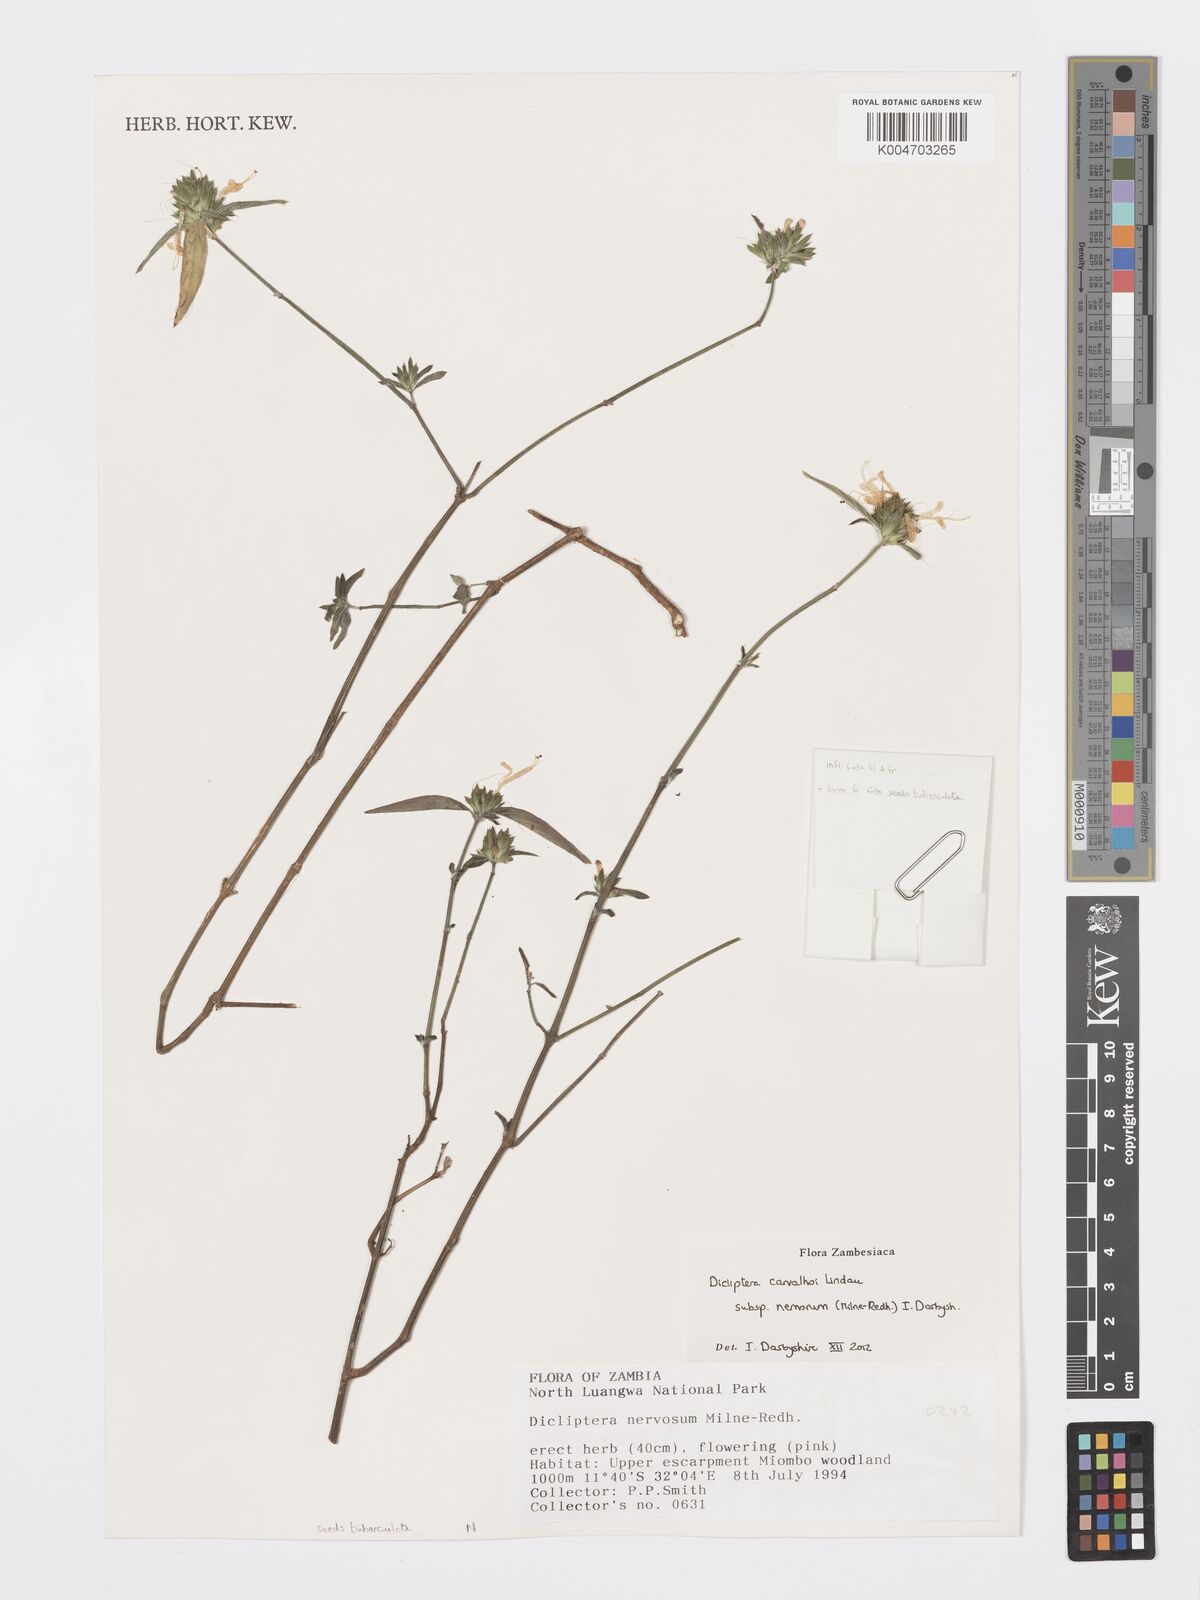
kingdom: Plantae
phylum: Tracheophyta
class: Magnoliopsida
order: Lamiales
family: Acanthaceae
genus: Dicliptera
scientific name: Dicliptera carvalhoi
